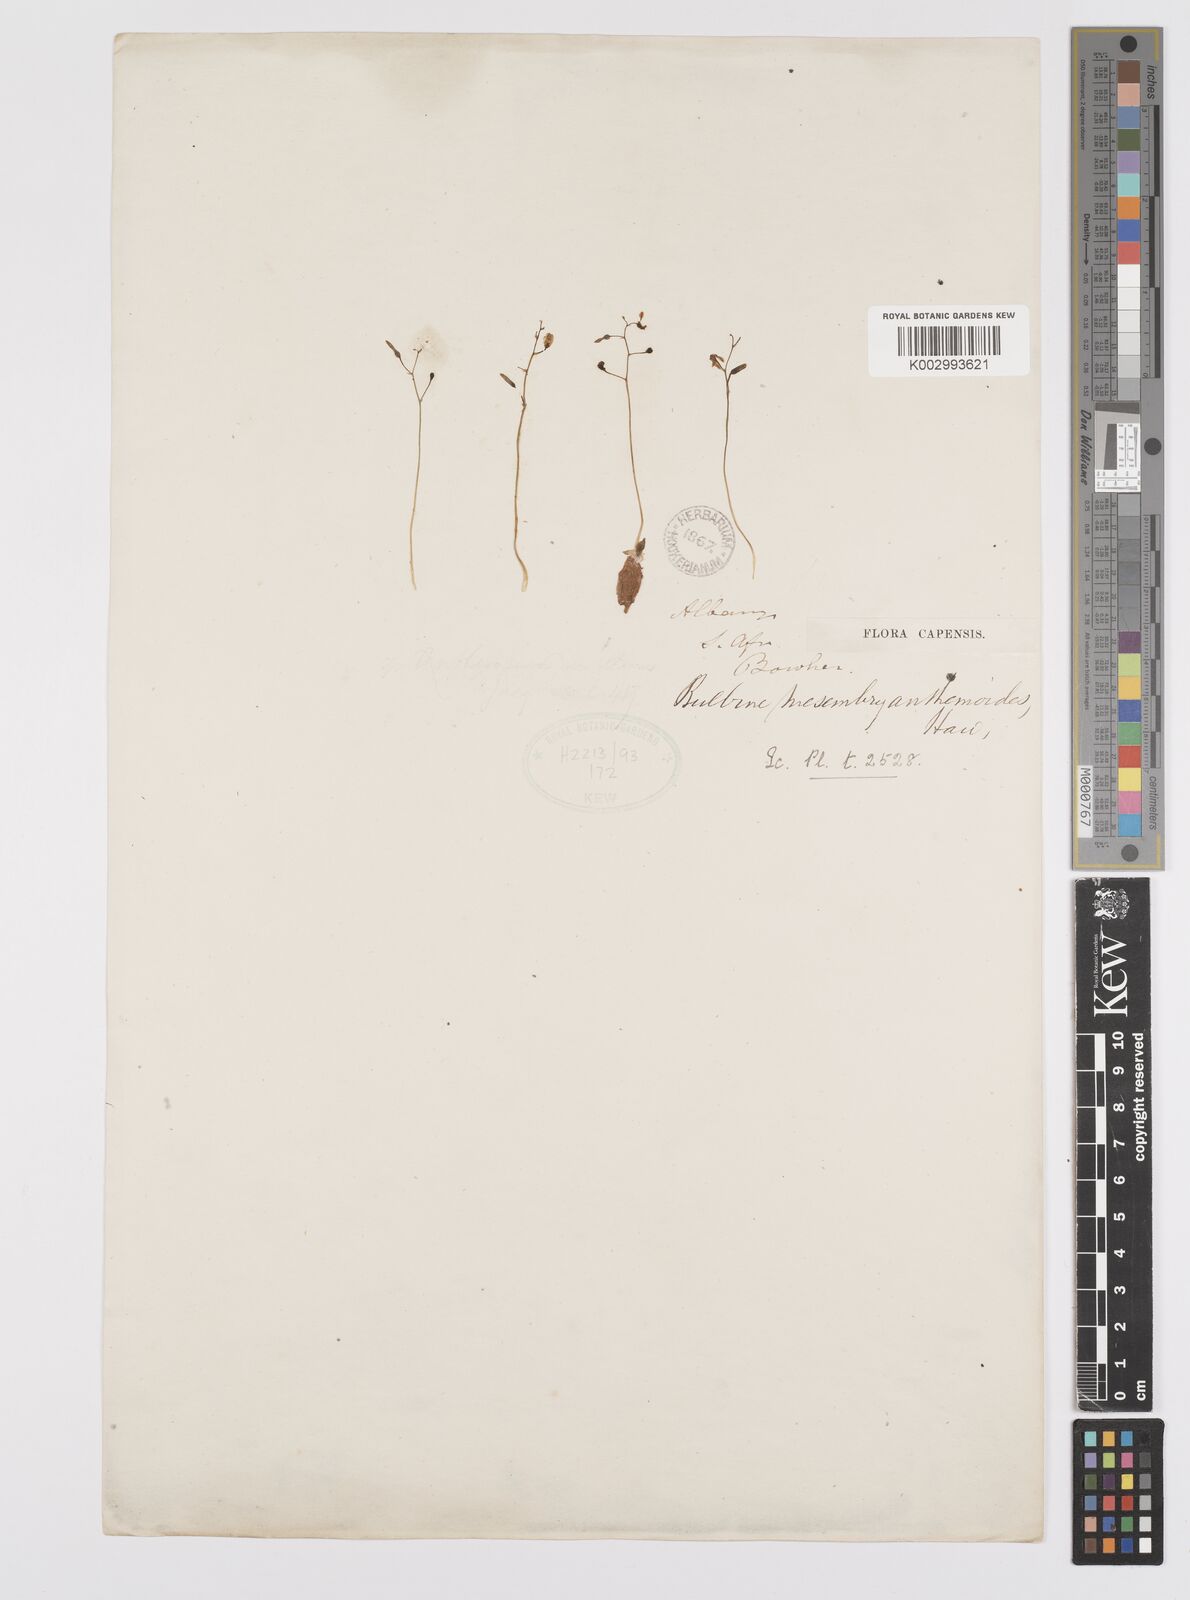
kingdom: Plantae
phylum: Tracheophyta
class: Liliopsida
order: Asparagales
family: Asphodelaceae
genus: Bulbine
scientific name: Bulbine mesembryanthemoides
